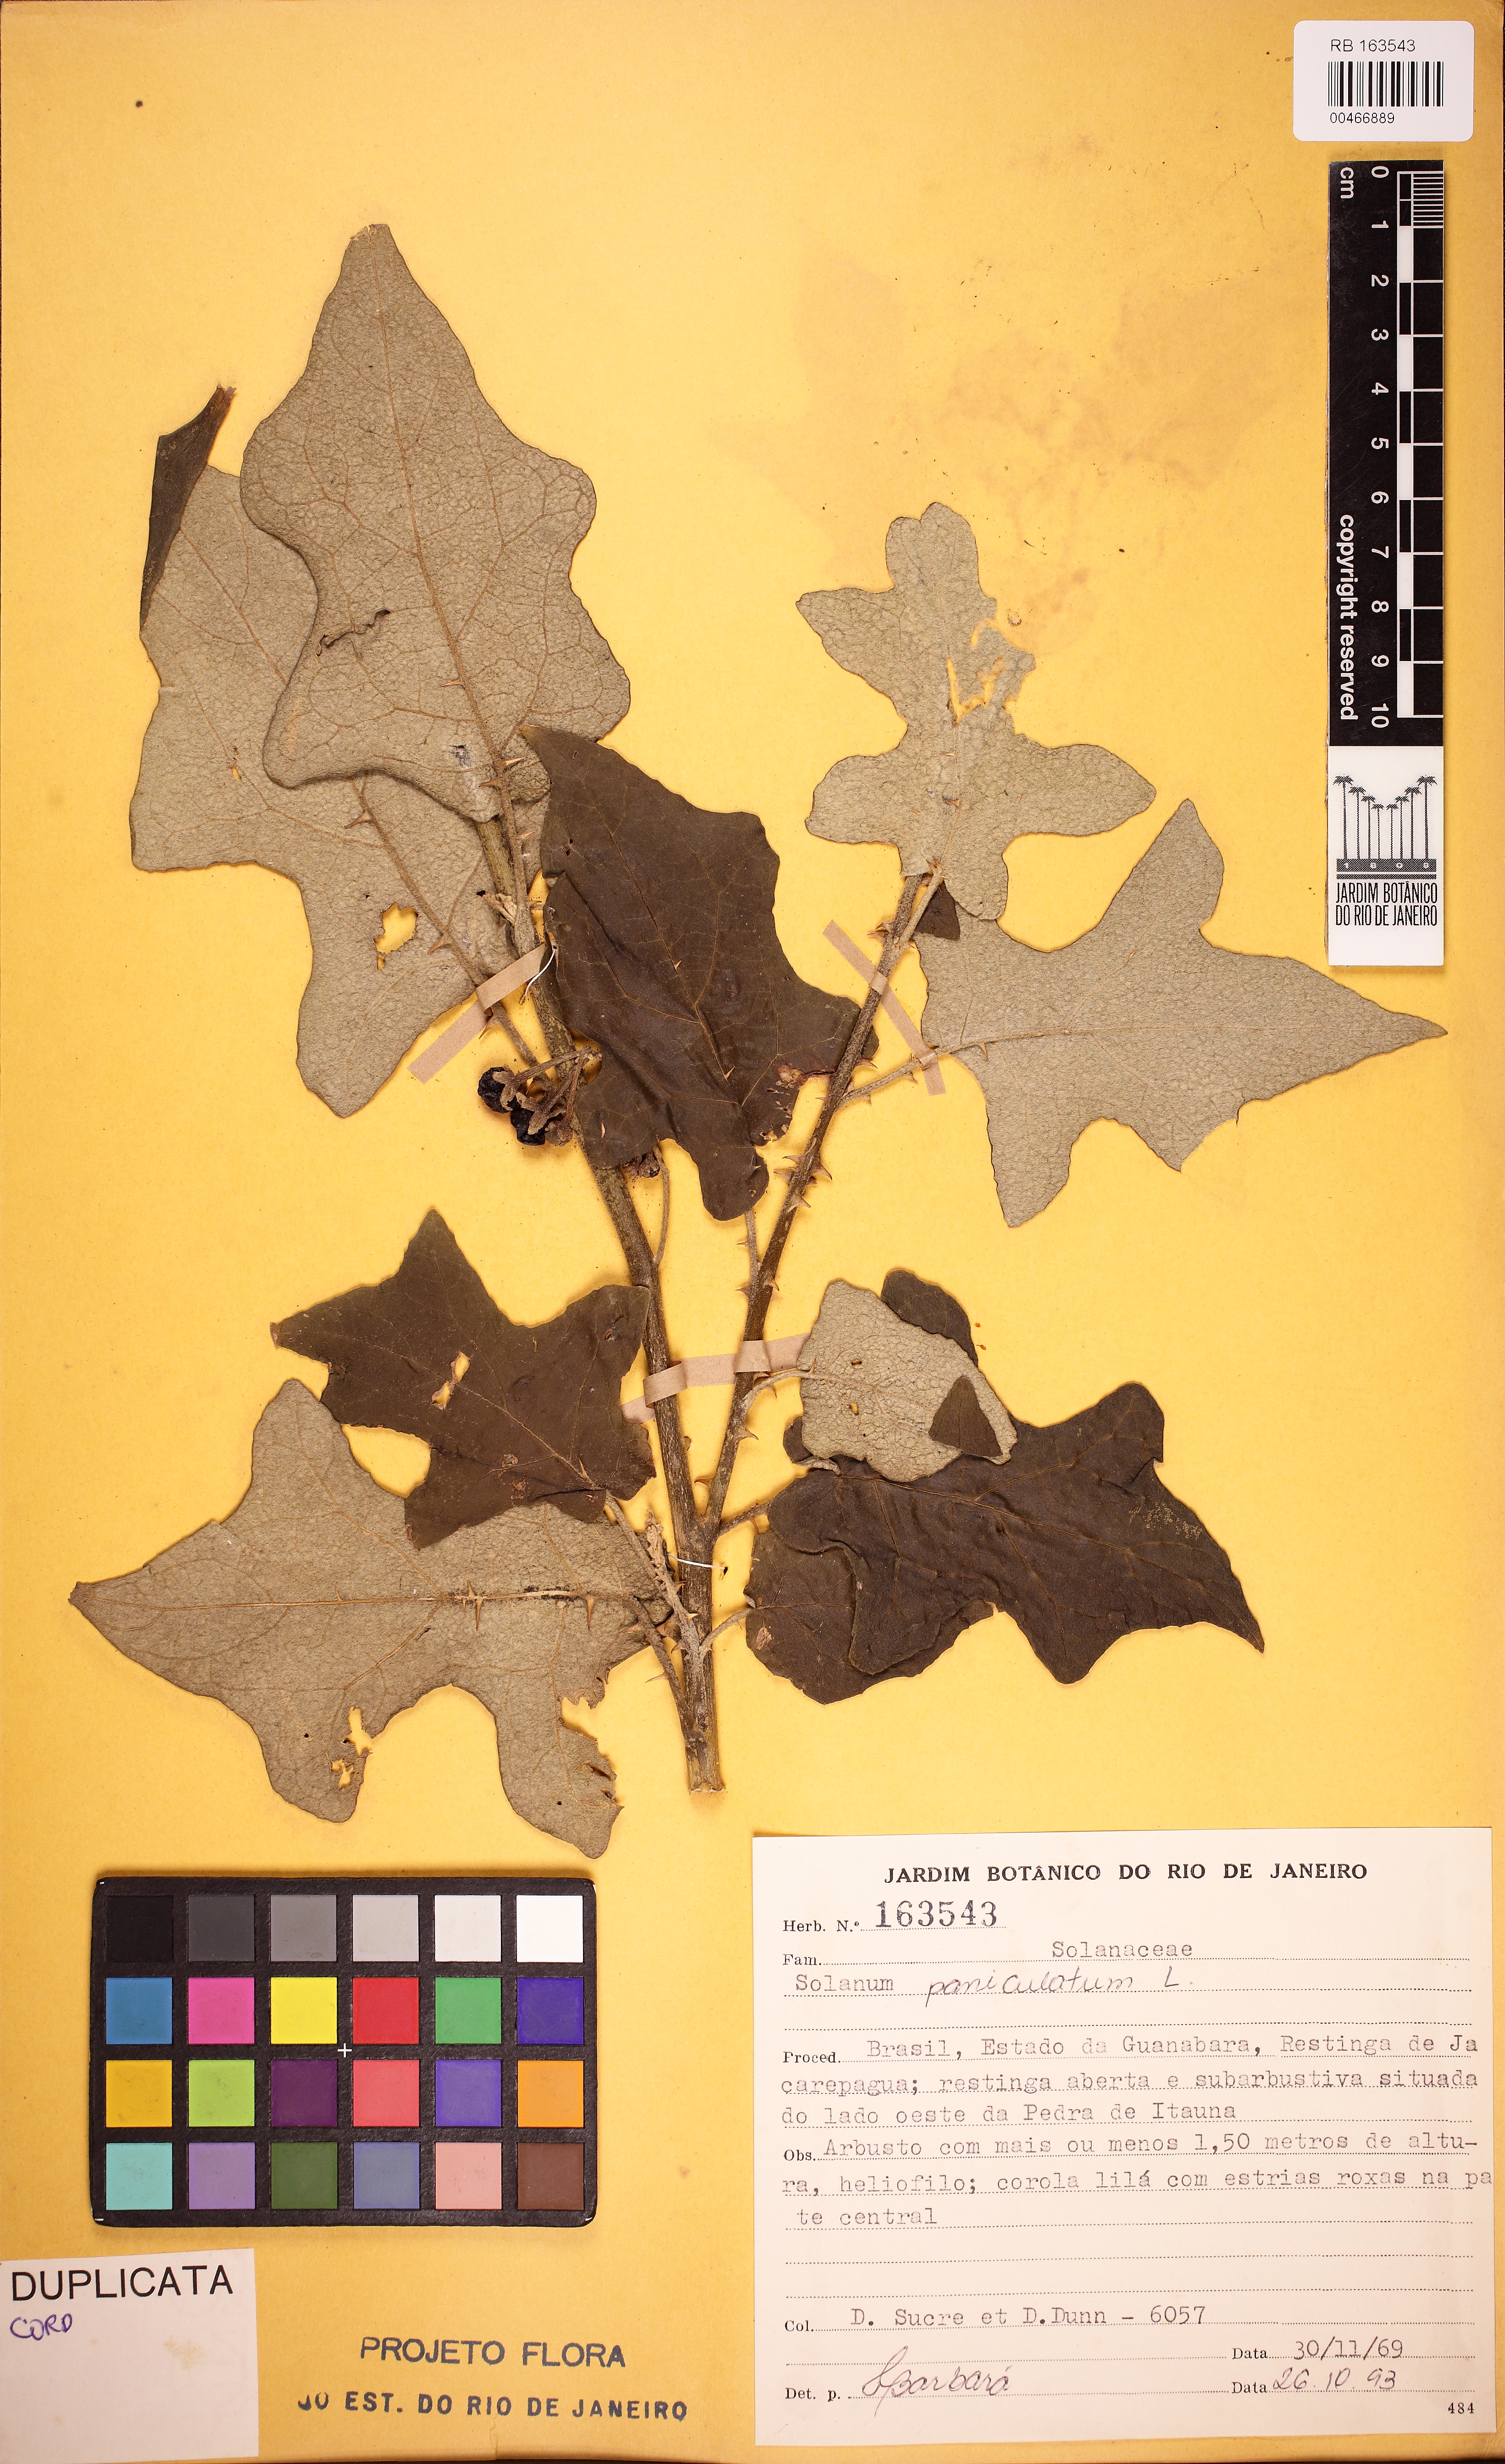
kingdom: Plantae
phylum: Tracheophyta
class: Magnoliopsida
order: Solanales
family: Solanaceae
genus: Solanum
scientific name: Solanum paniculatum
